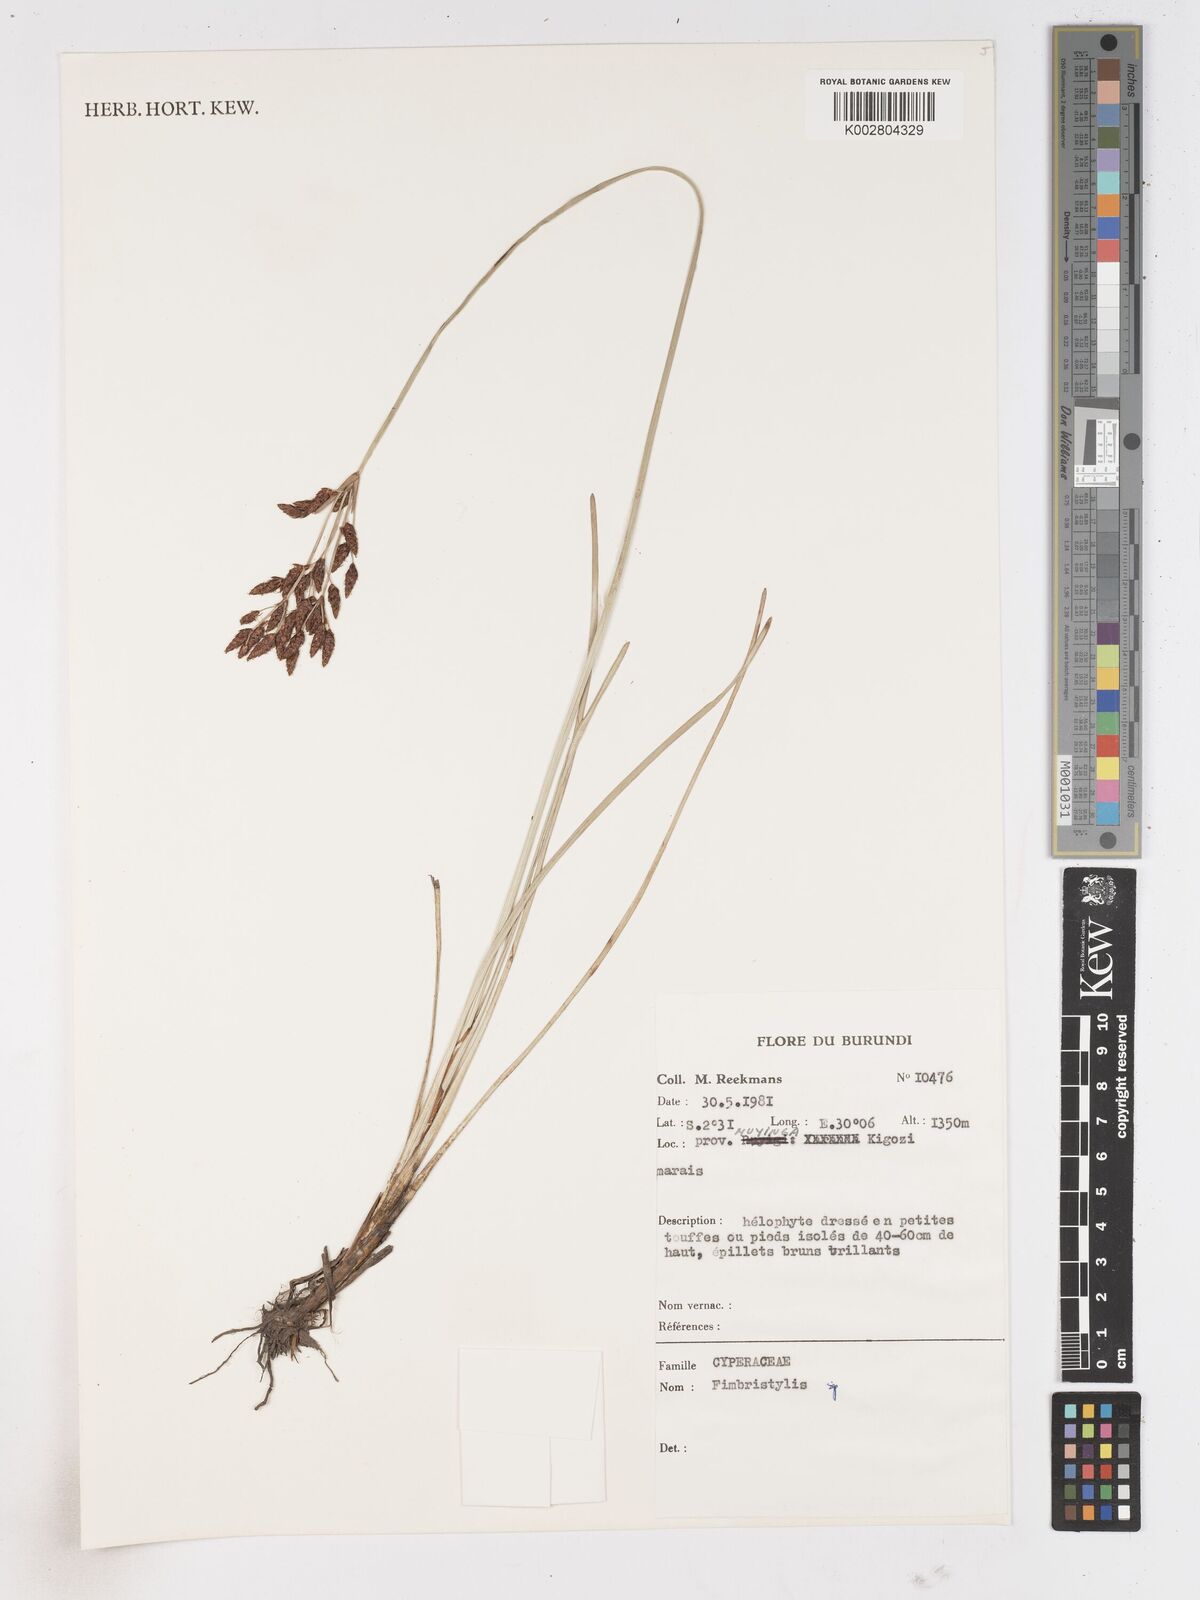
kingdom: Plantae
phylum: Tracheophyta
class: Liliopsida
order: Poales
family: Cyperaceae
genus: Fimbristylis
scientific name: Fimbristylis
